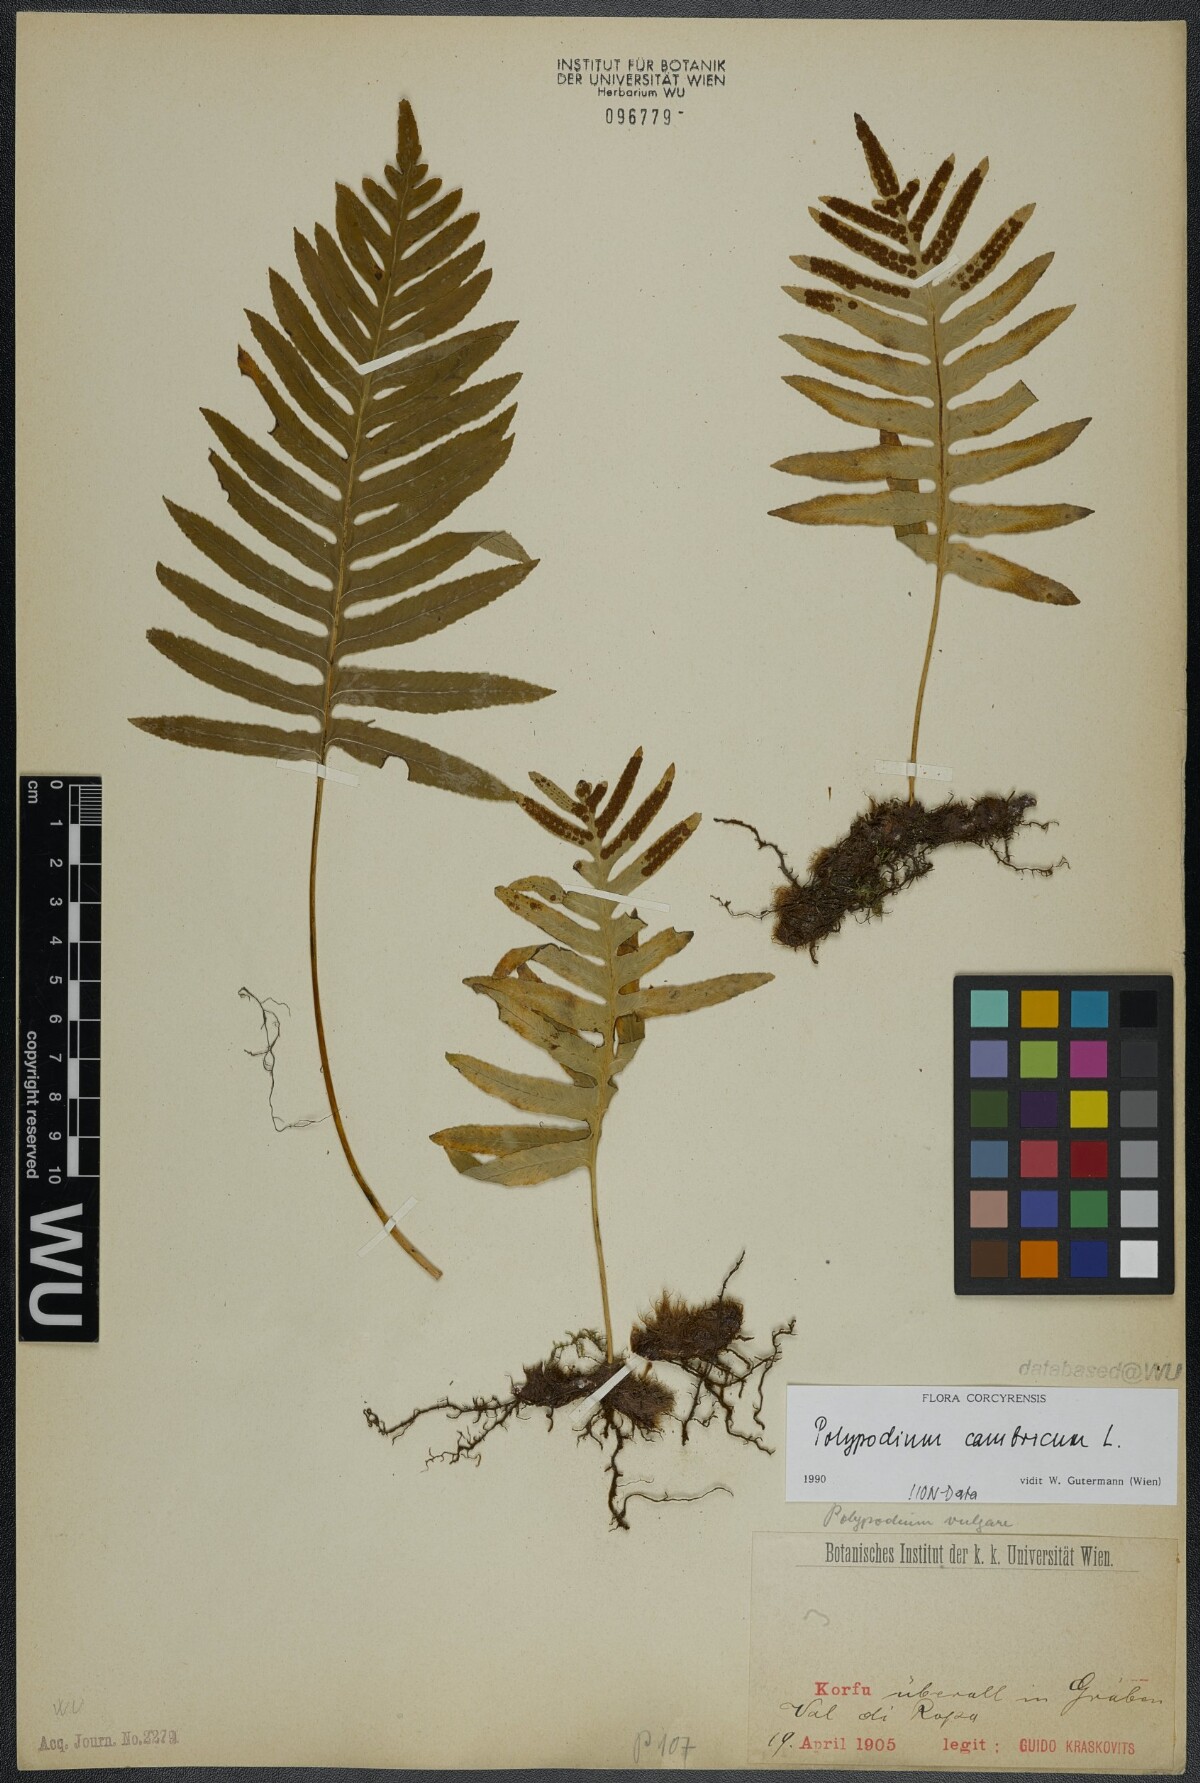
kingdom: Plantae
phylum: Tracheophyta
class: Polypodiopsida
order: Polypodiales
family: Polypodiaceae
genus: Polypodium
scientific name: Polypodium cambricum
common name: Southern polypody
